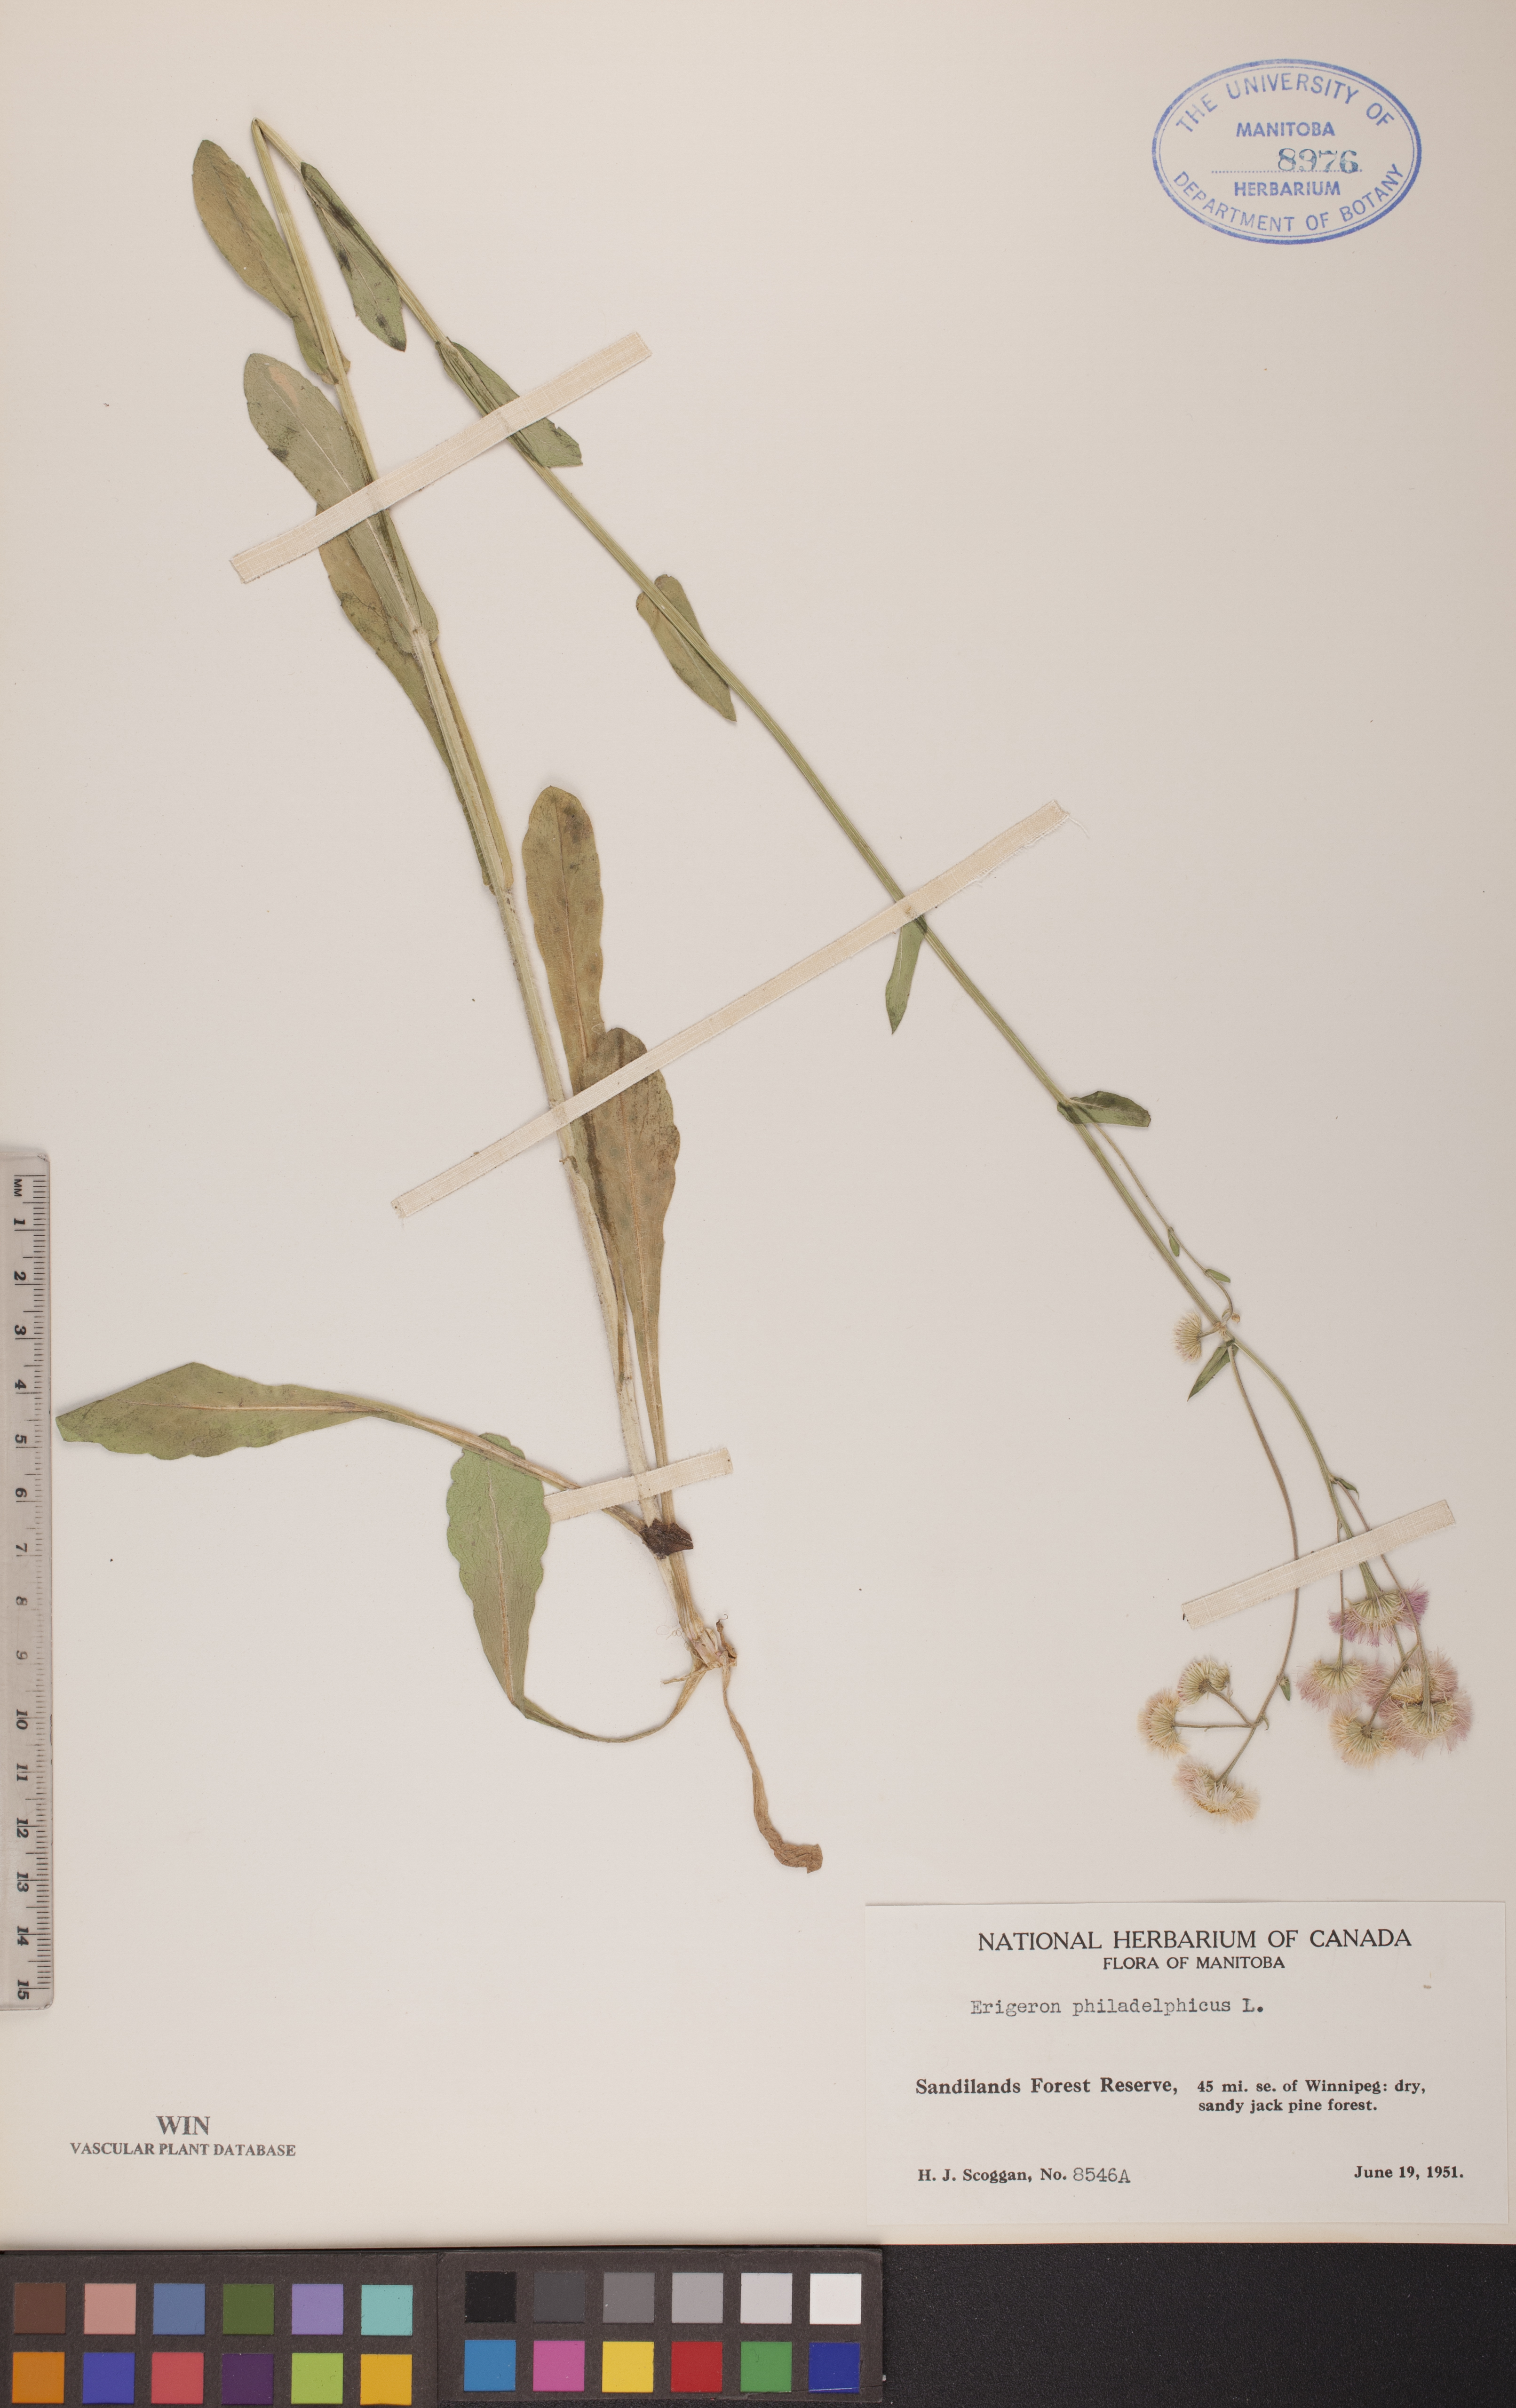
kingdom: Plantae
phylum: Tracheophyta
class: Magnoliopsida
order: Asterales
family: Asteraceae
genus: Erigeron
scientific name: Erigeron philadelphicus
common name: Robin's-plantain
